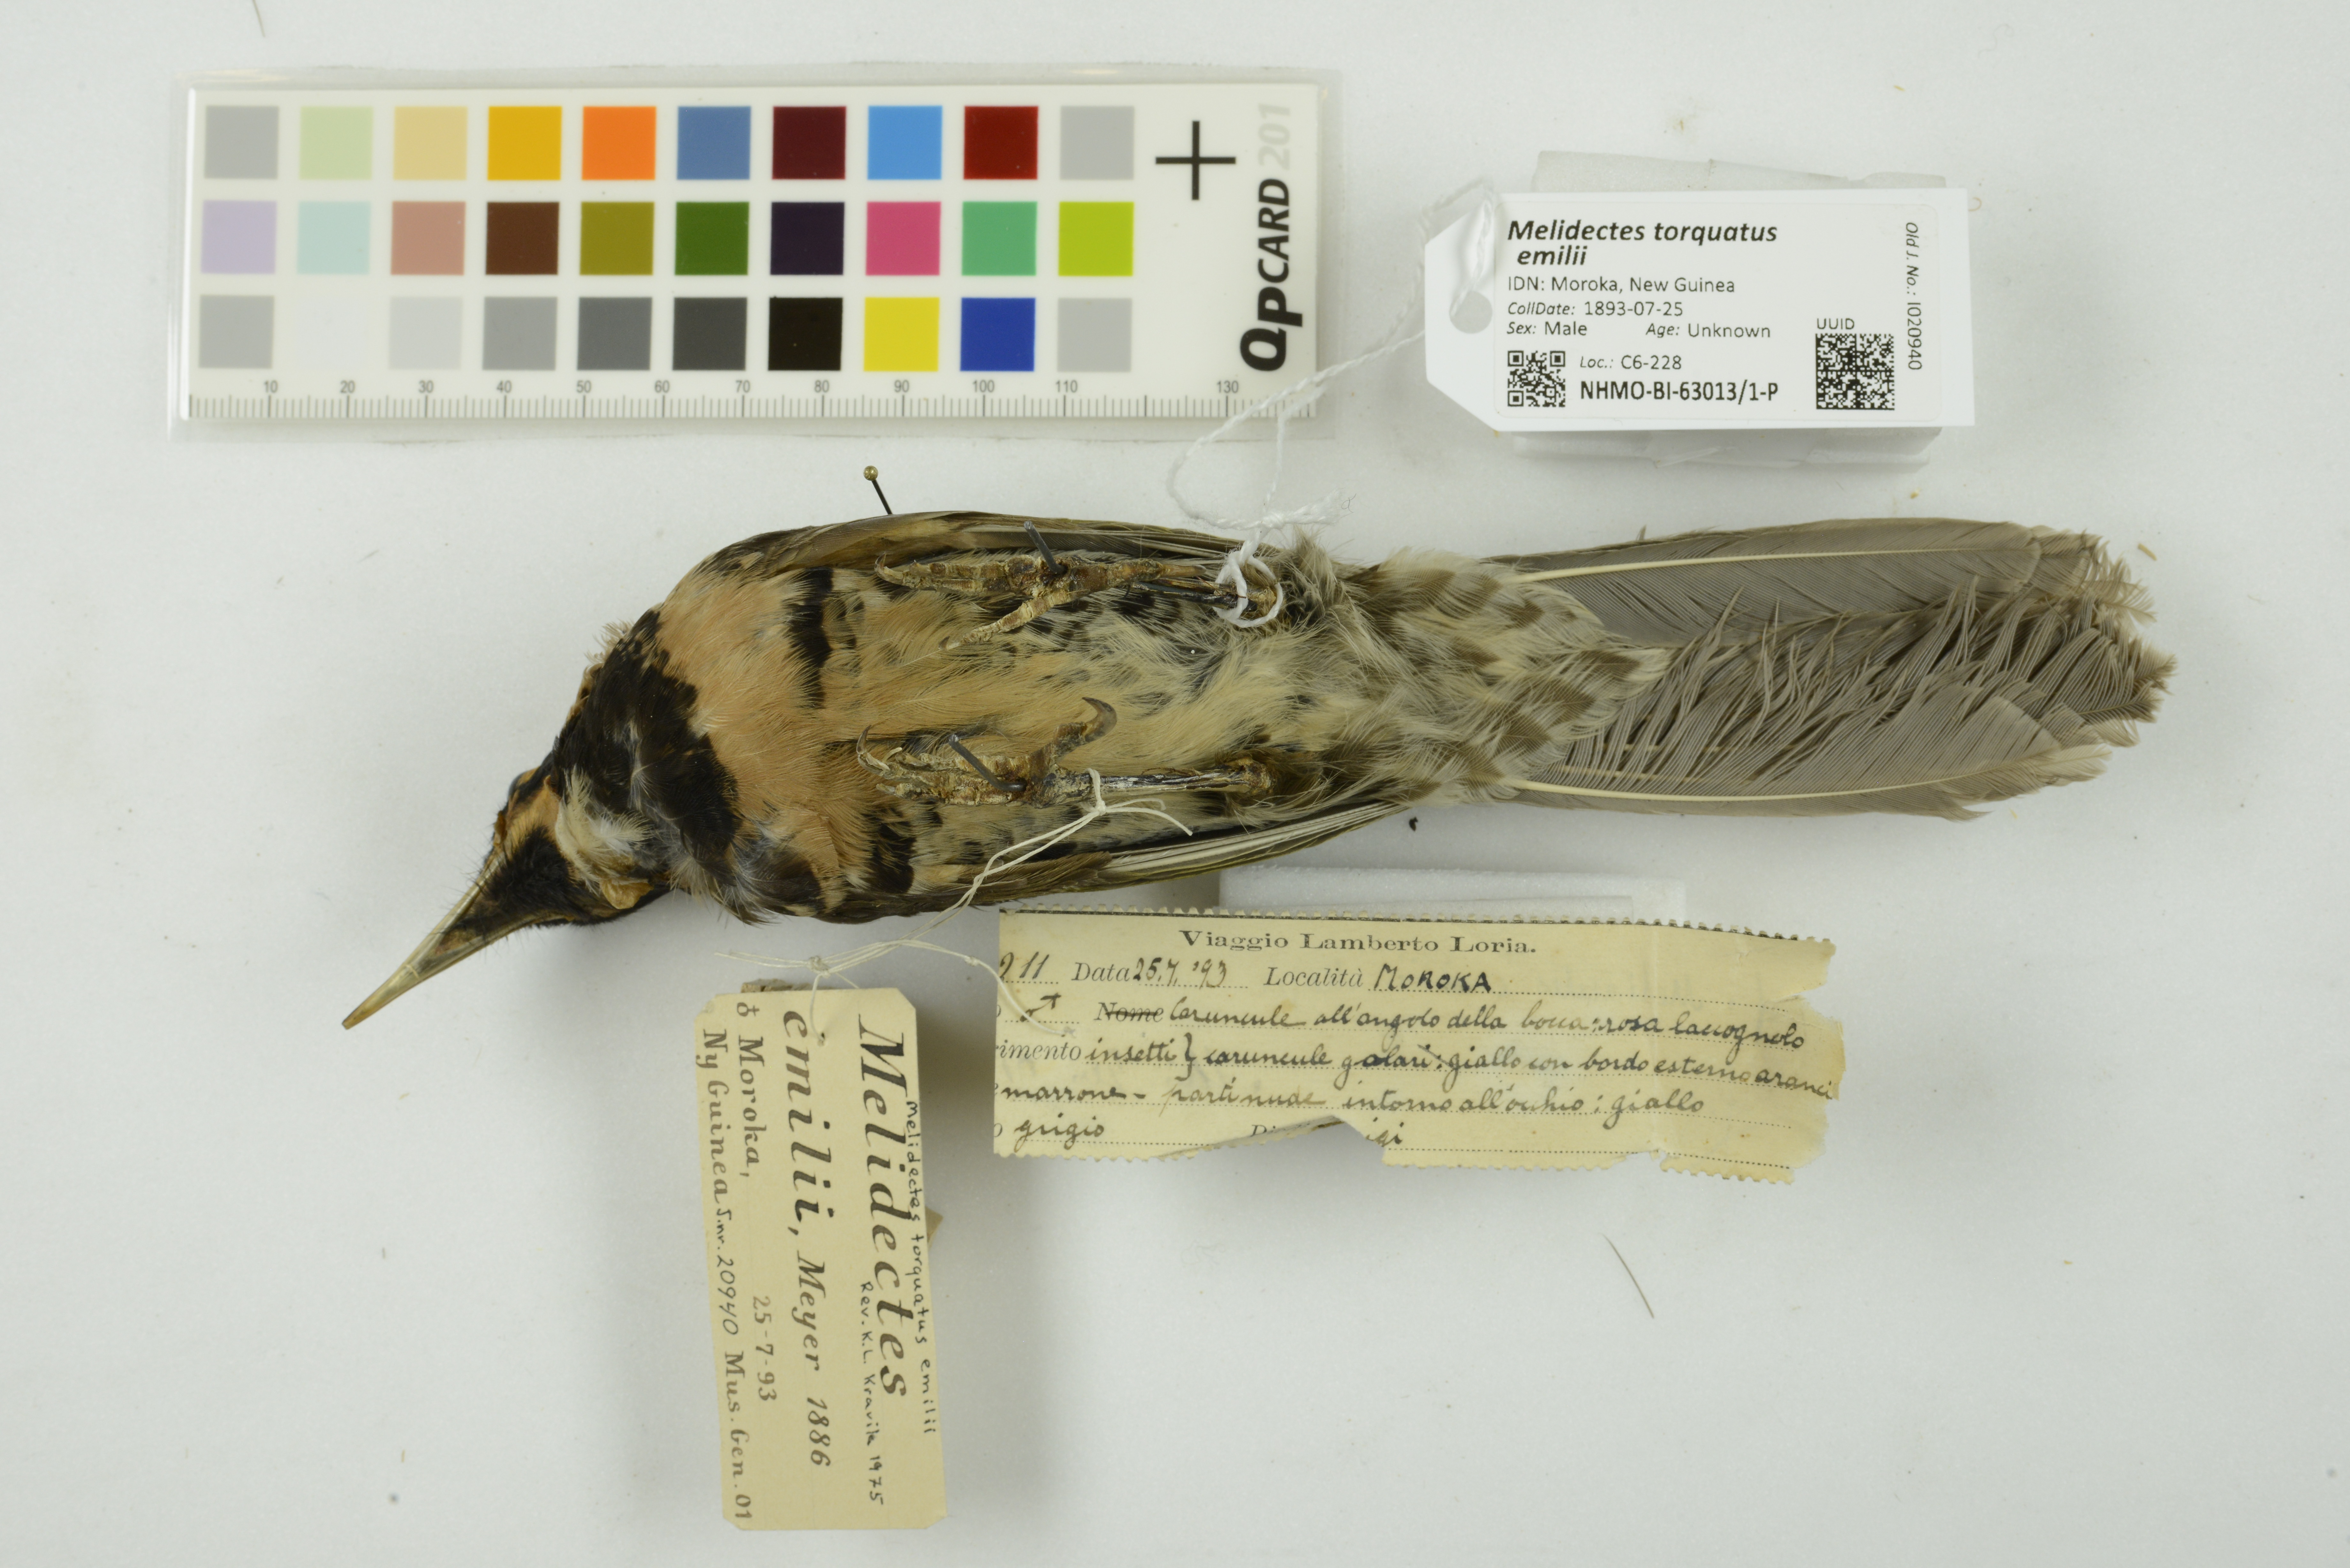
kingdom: Animalia
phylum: Chordata
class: Aves
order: Passeriformes
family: Meliphagidae
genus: Melidectes
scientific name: Melidectes torquatus
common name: Ornate melidectes
